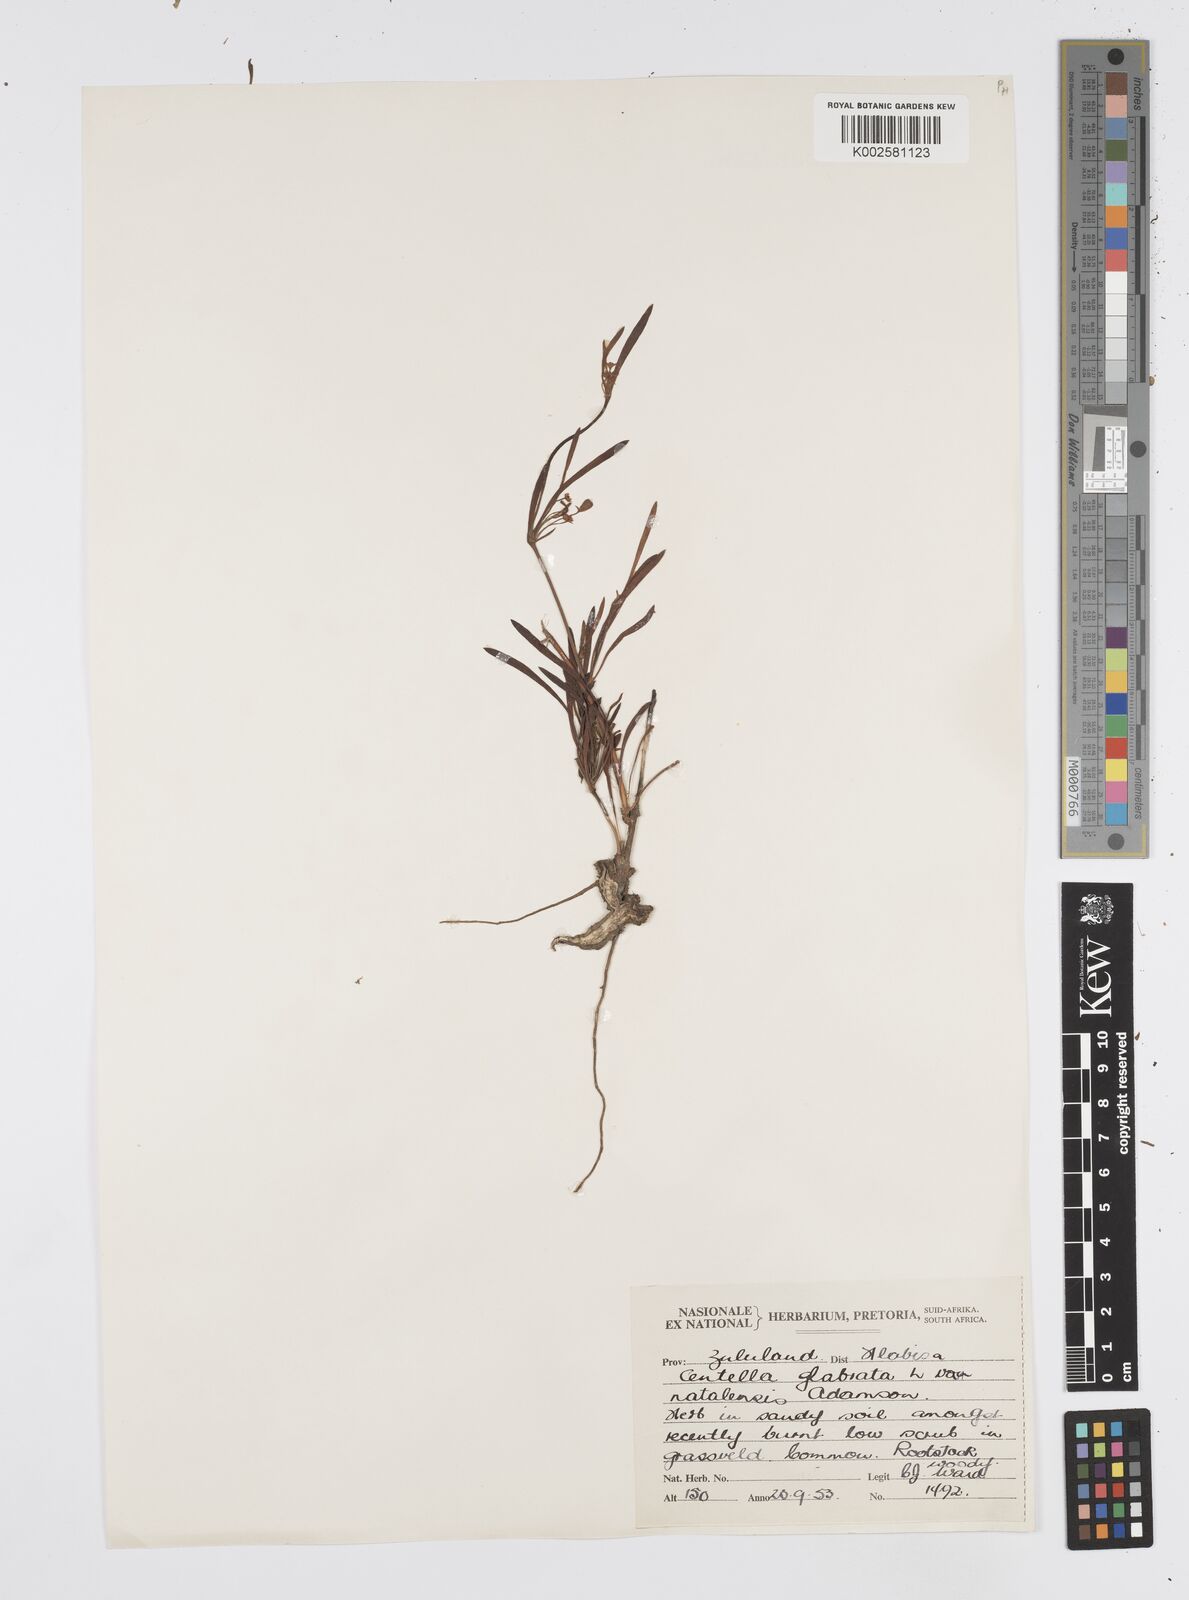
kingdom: Plantae
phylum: Tracheophyta
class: Magnoliopsida
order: Apiales
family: Apiaceae
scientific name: Apiaceae
